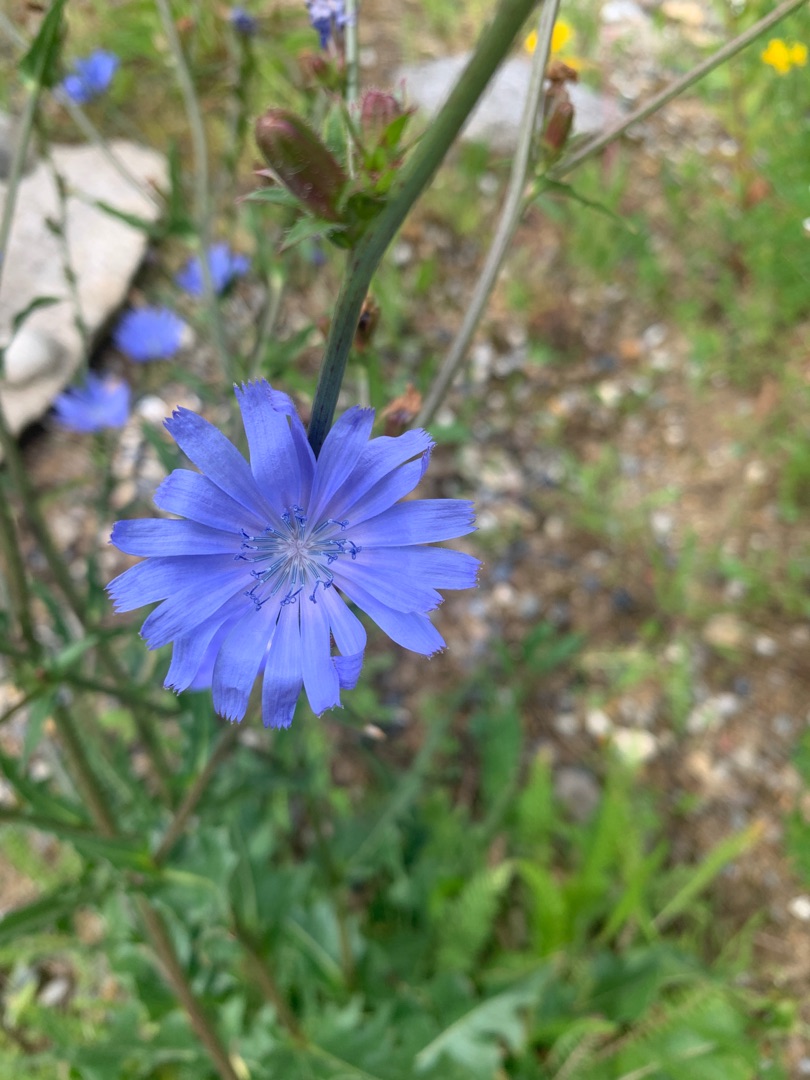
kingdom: Plantae
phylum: Tracheophyta
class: Magnoliopsida
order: Asterales
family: Asteraceae
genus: Cichorium
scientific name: Cichorium intybus
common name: Cikorie
